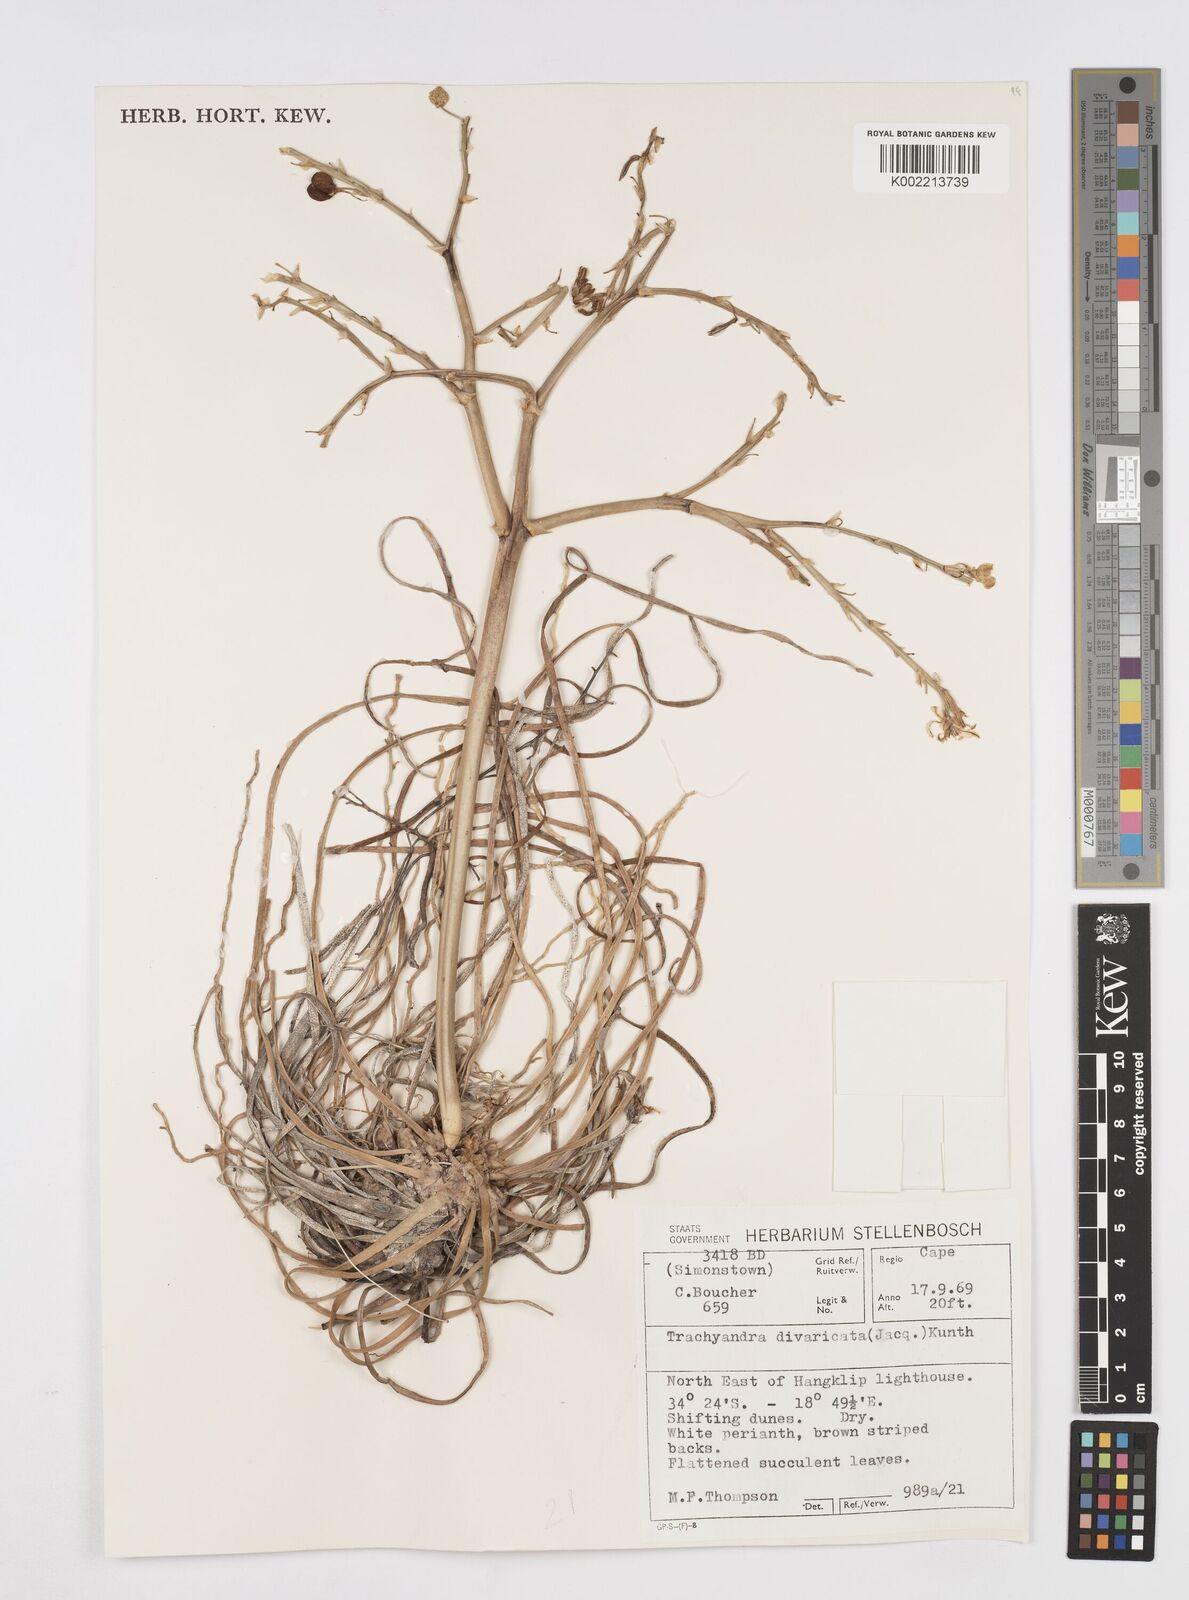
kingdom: Plantae
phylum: Tracheophyta
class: Liliopsida
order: Asparagales
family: Asphodelaceae
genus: Trachyandra
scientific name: Trachyandra divaricata
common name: Dune onionweed
